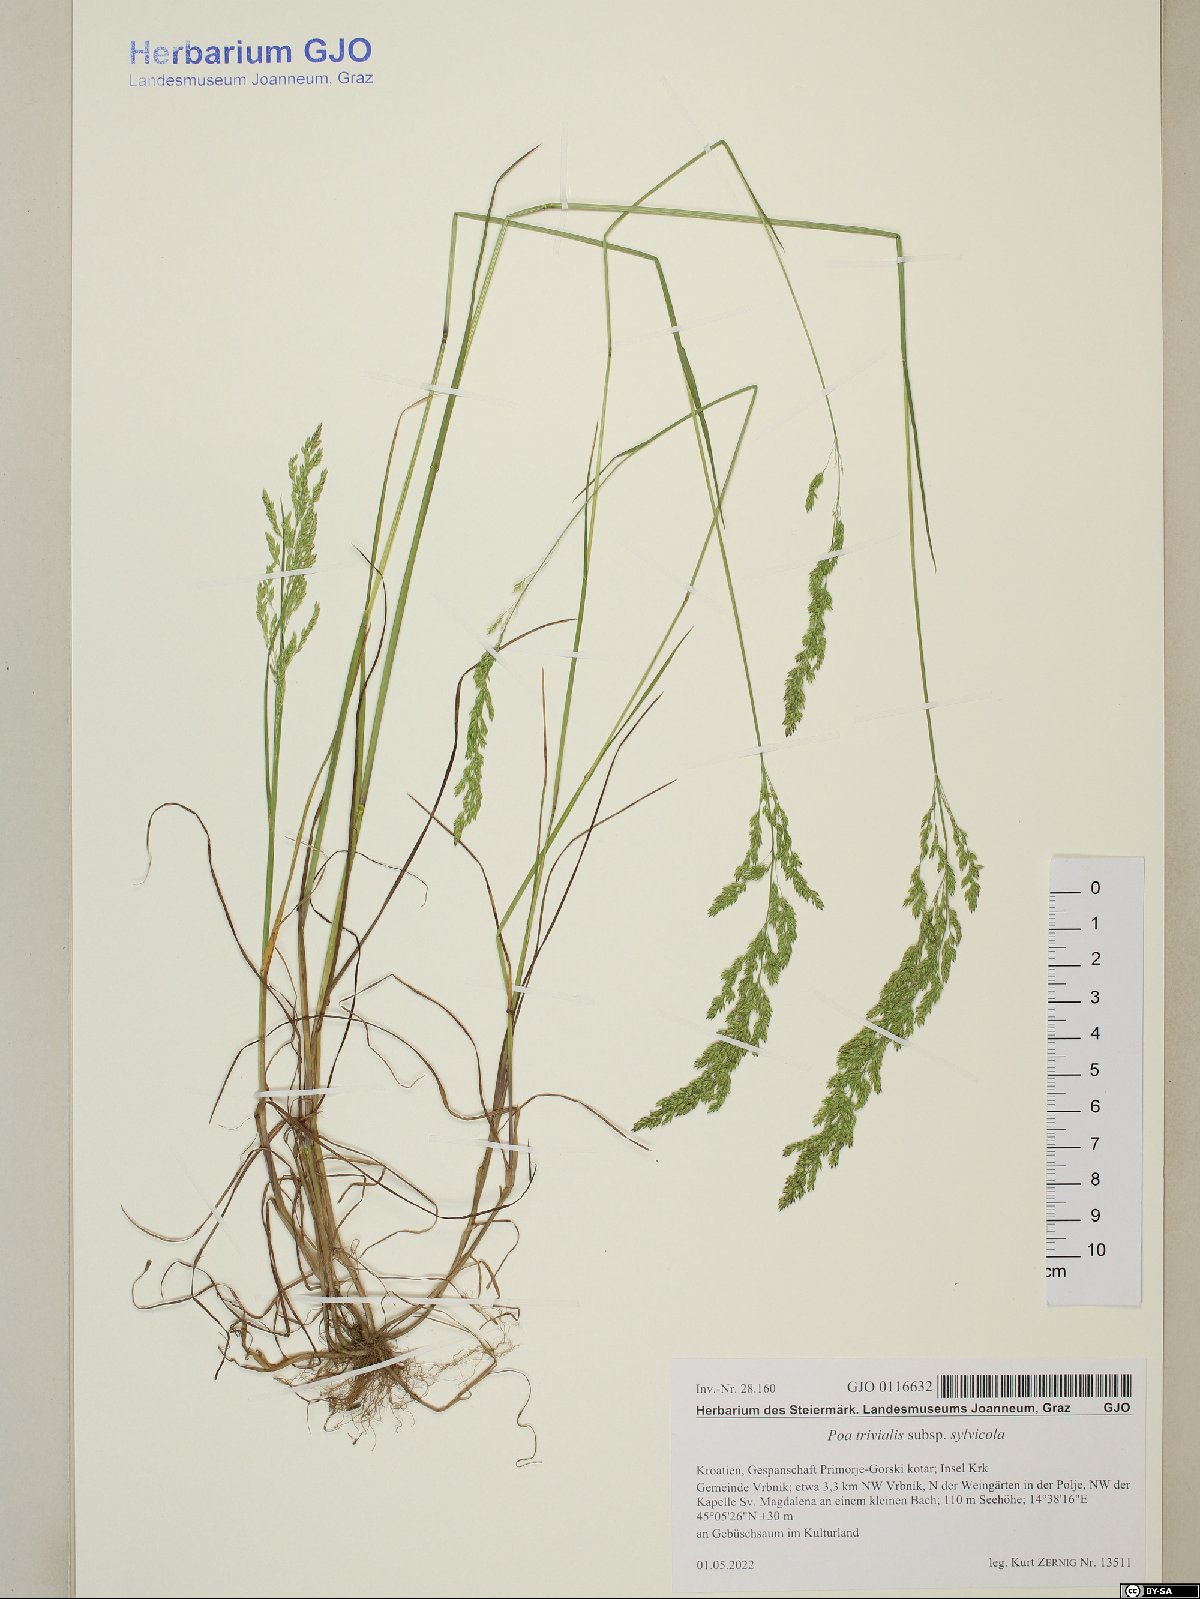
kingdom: Plantae
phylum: Tracheophyta
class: Liliopsida
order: Poales
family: Poaceae
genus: Poa
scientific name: Poa trivialis
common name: Rough bluegrass
